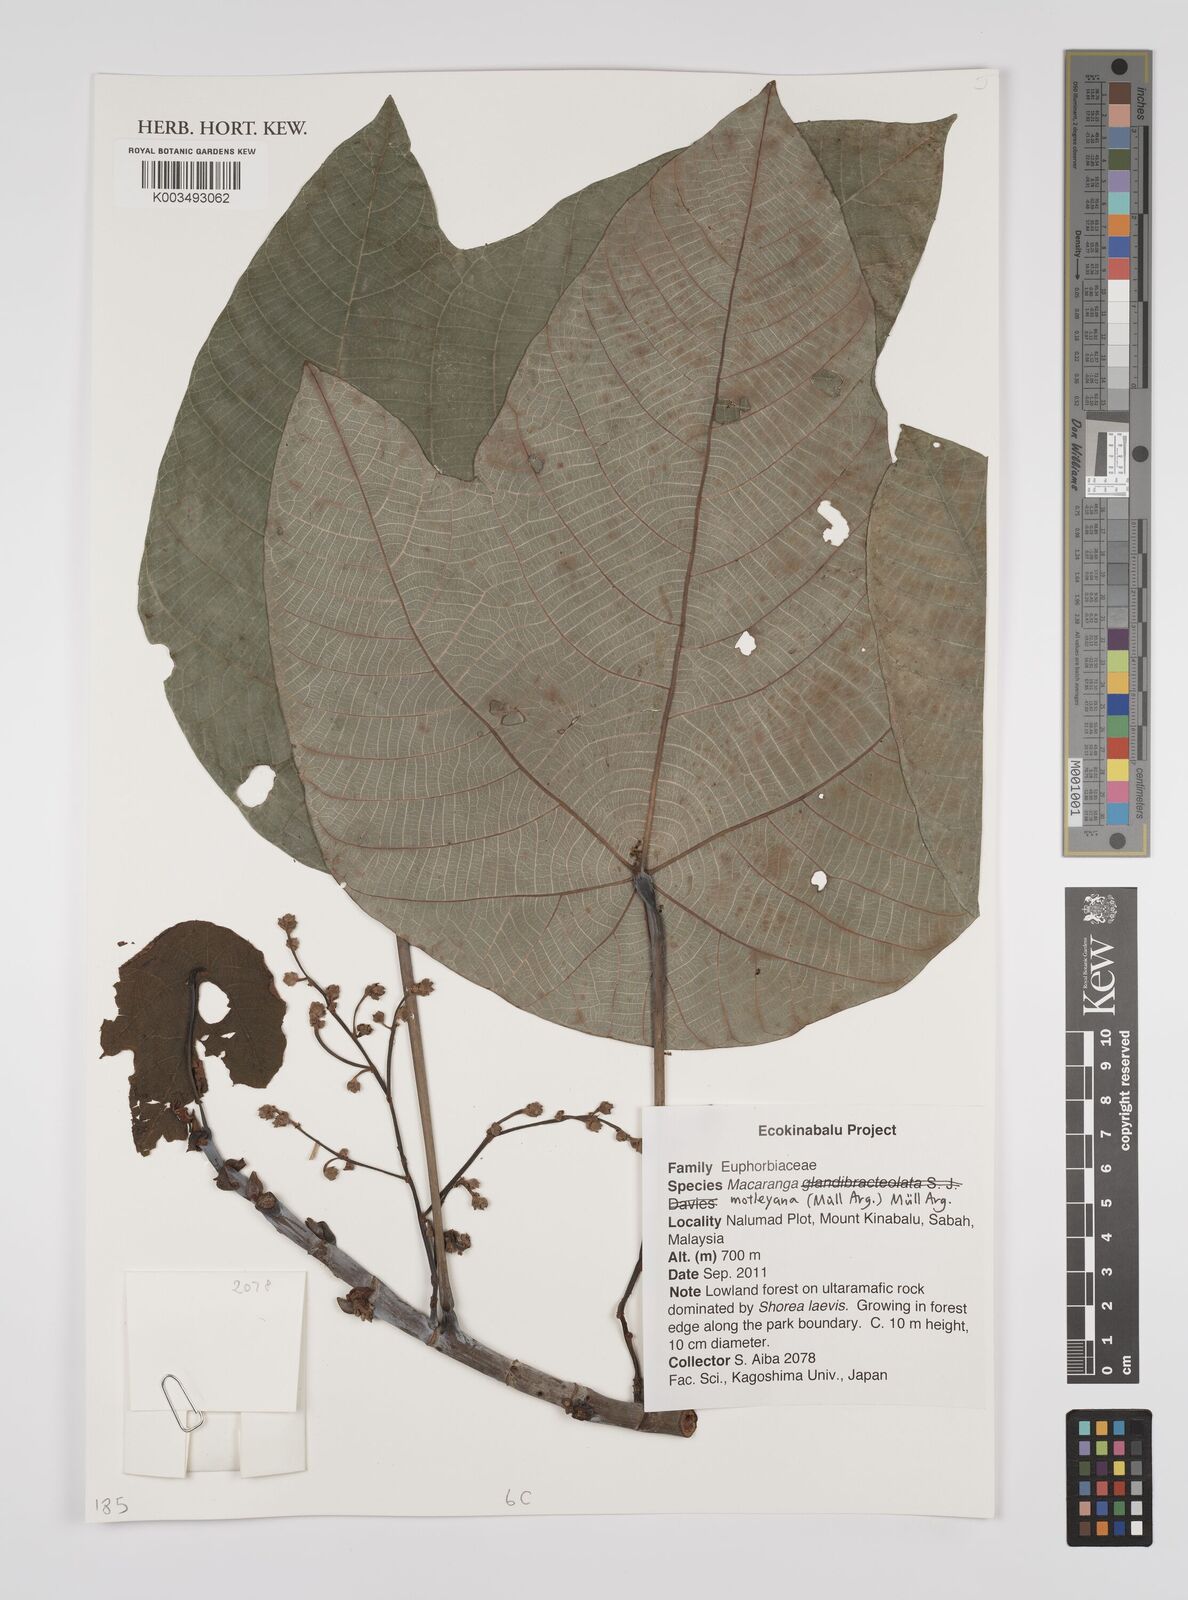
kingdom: Plantae
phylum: Tracheophyta
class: Magnoliopsida
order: Malpighiales
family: Euphorbiaceae
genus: Macaranga
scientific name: Macaranga motleyana
